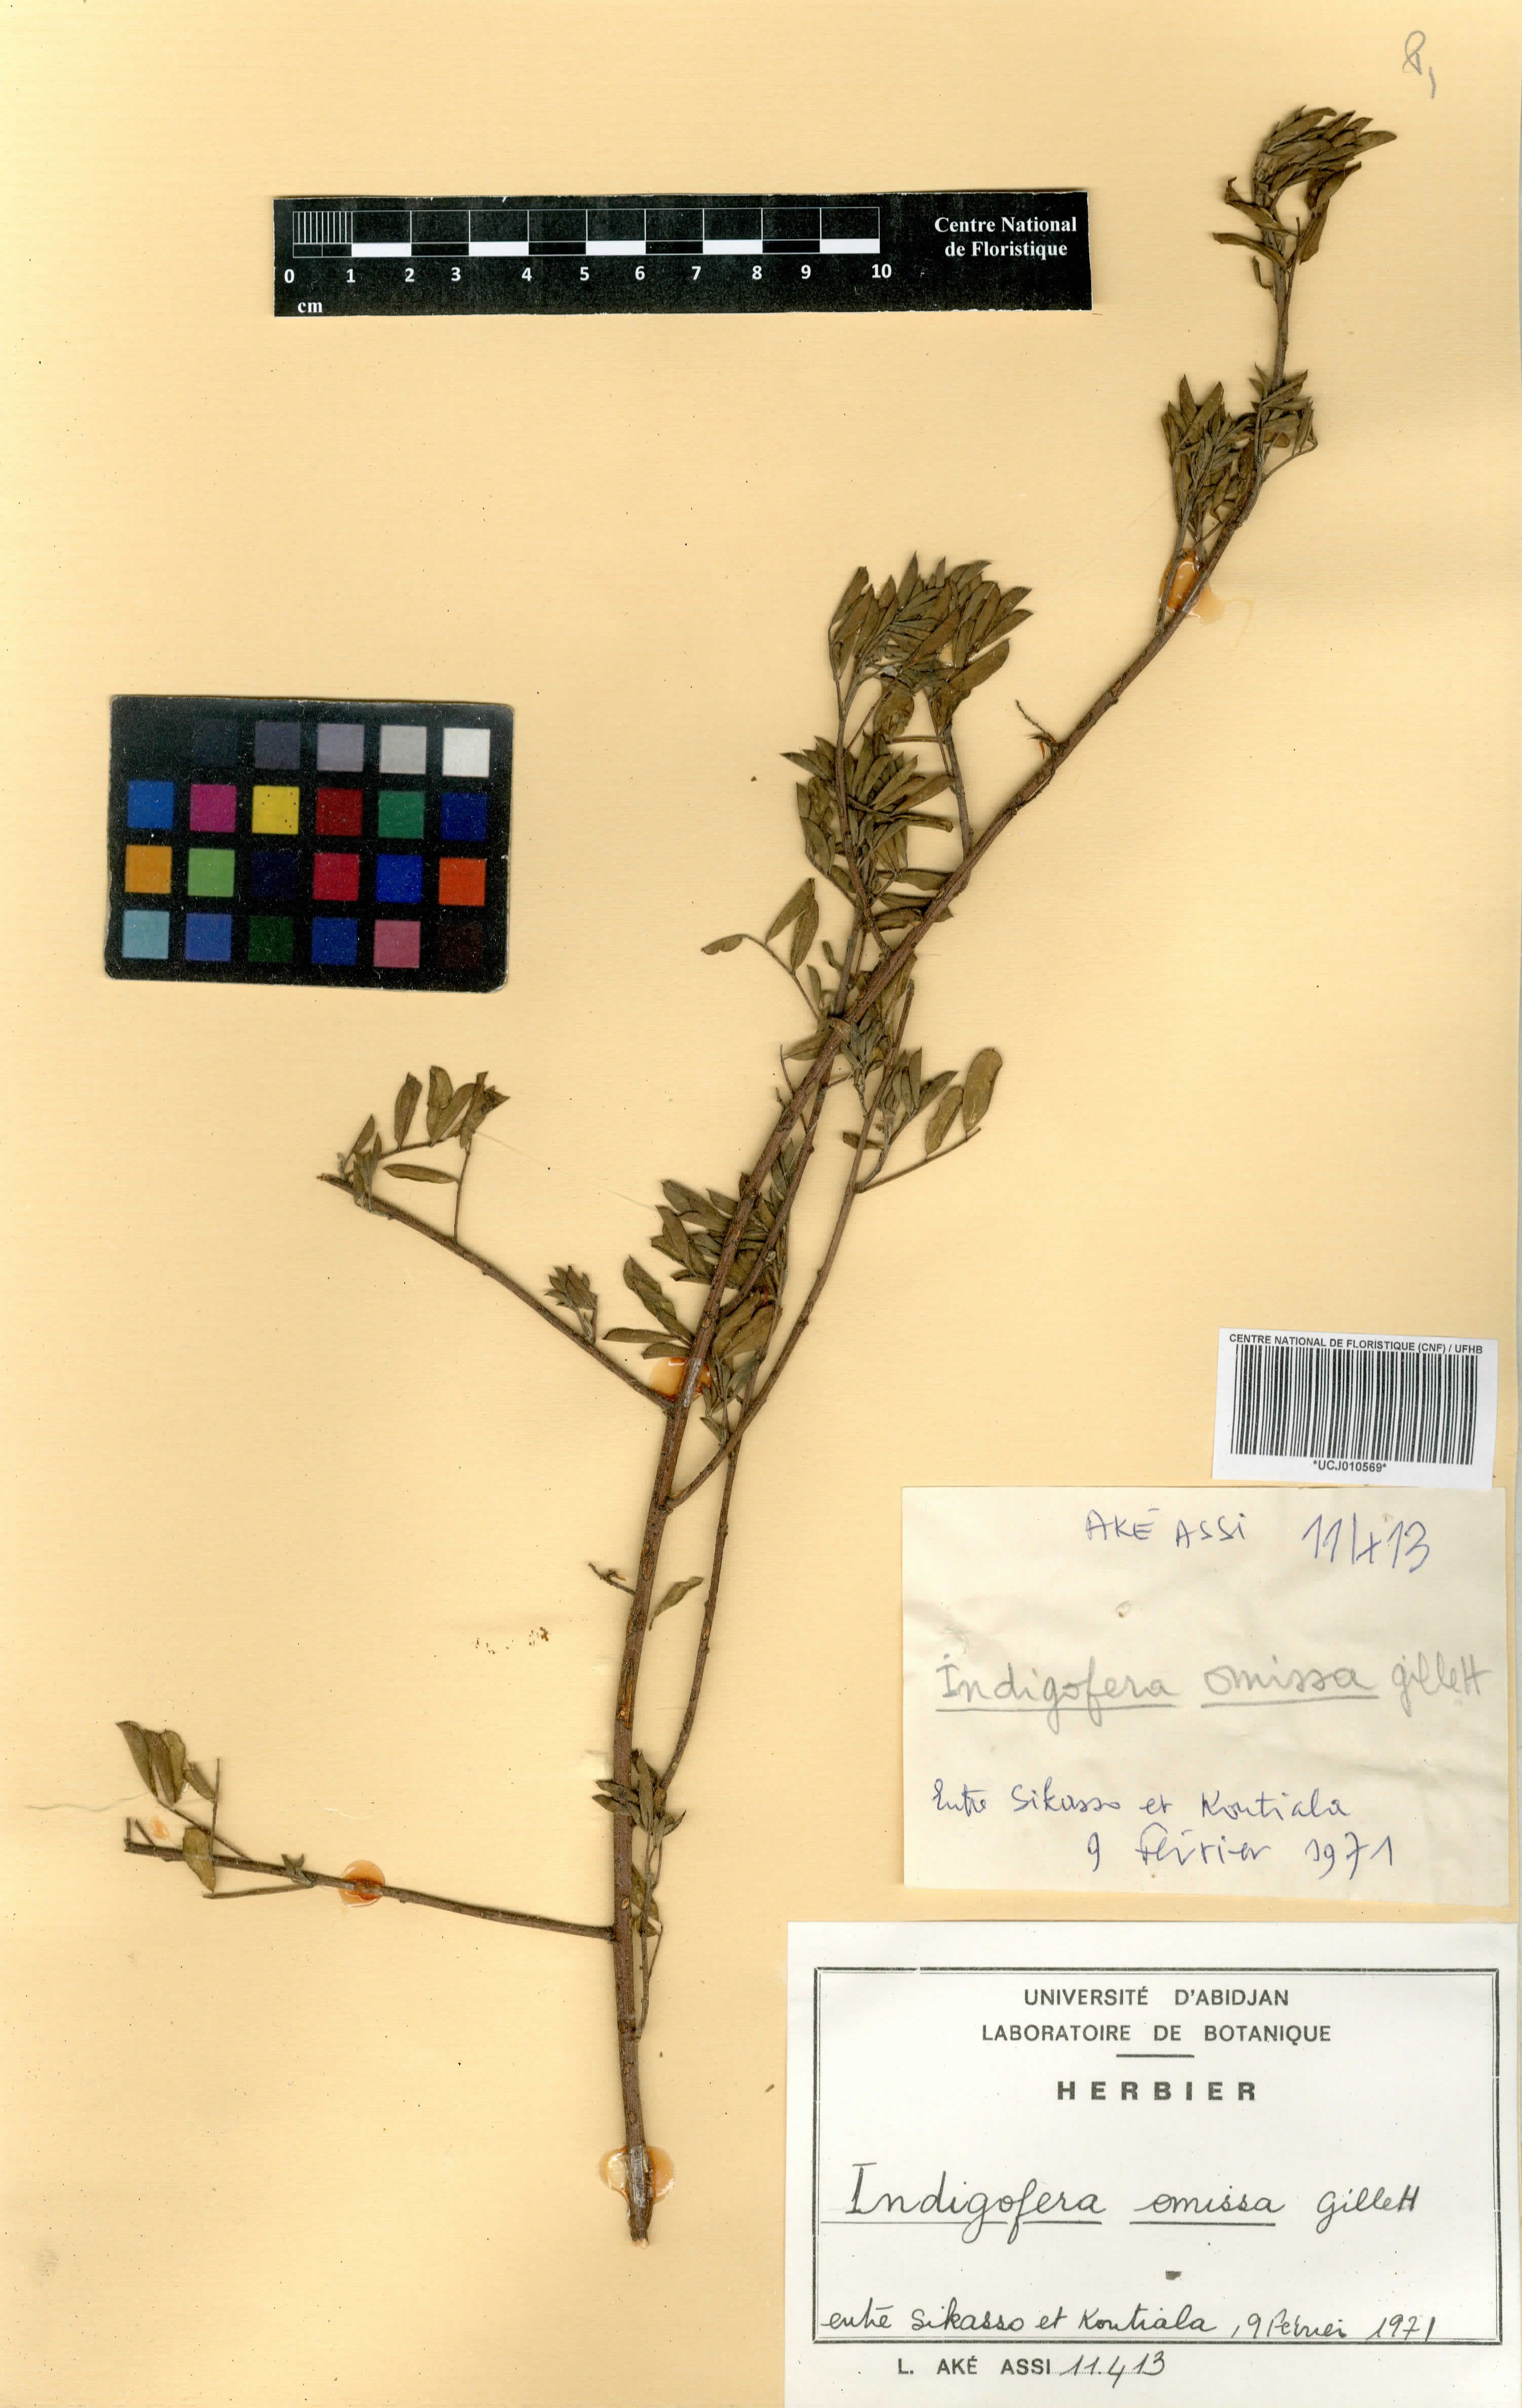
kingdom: Plantae
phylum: Tracheophyta
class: Magnoliopsida
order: Fabales
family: Fabaceae
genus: Indigofera
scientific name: Indigofera omissa
